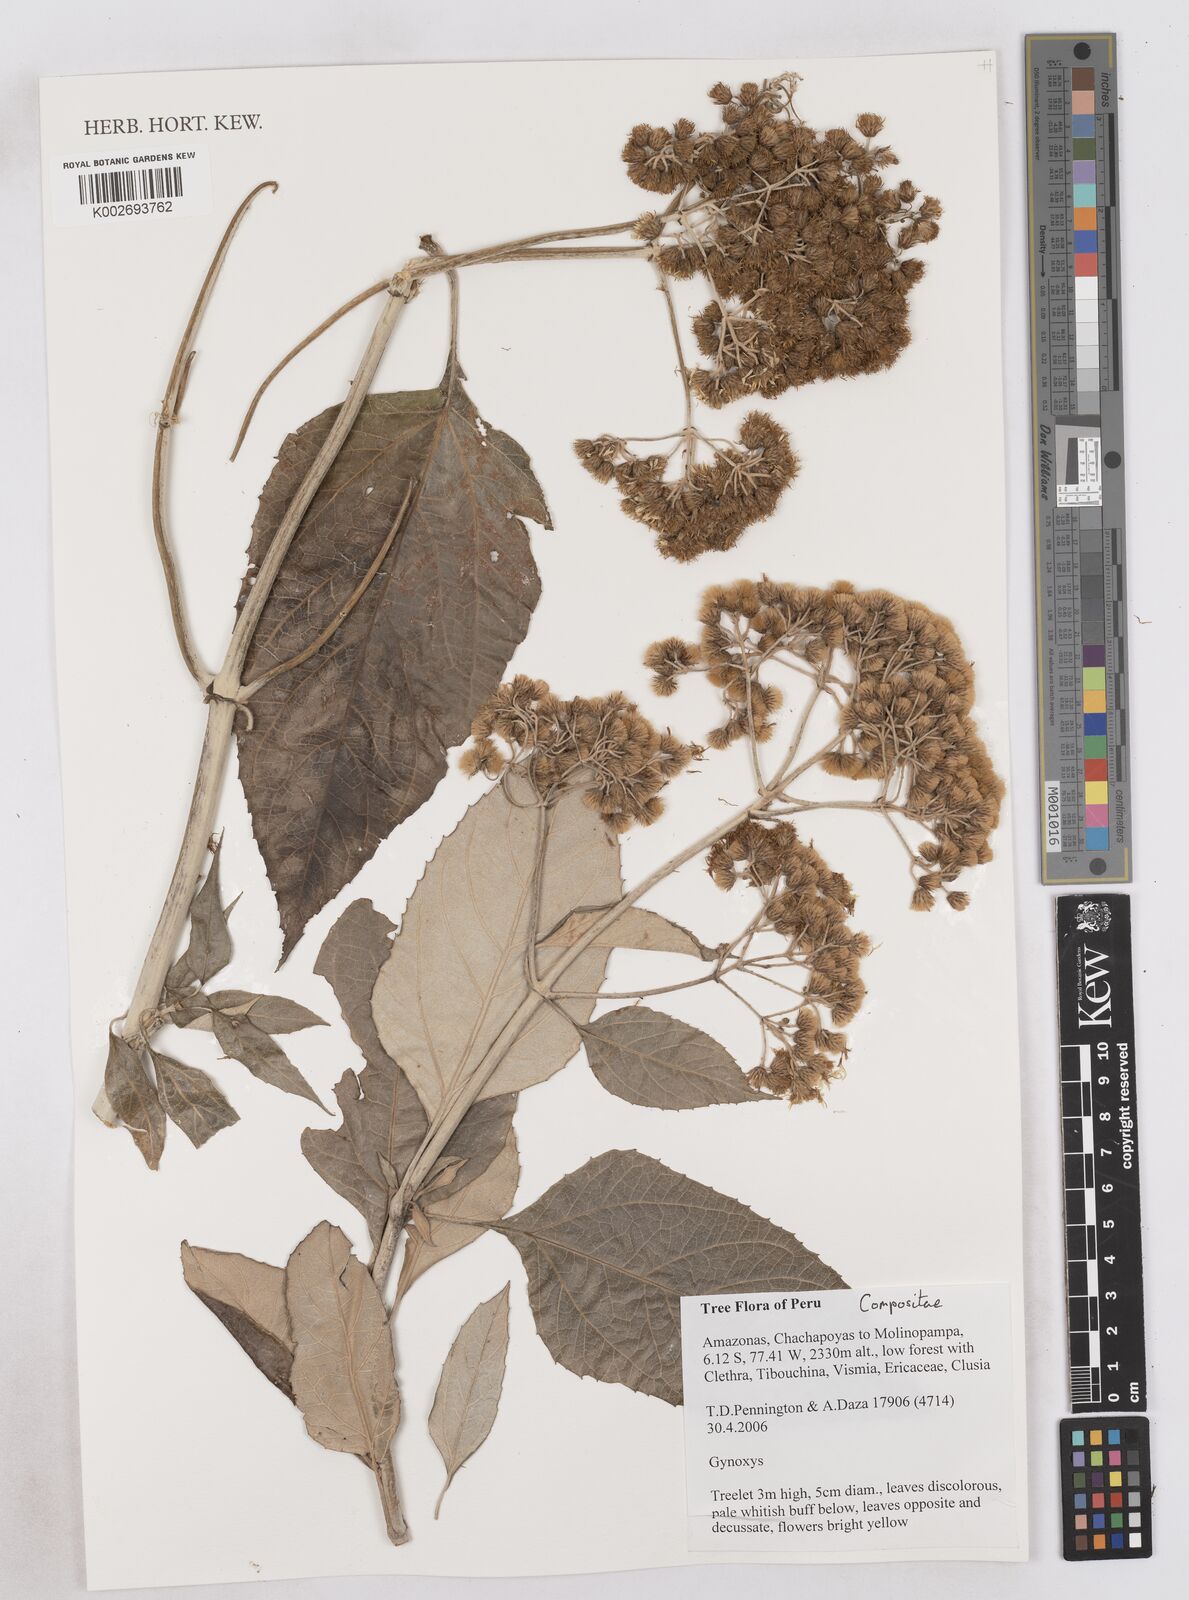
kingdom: Plantae
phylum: Tracheophyta
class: Magnoliopsida
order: Asterales
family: Asteraceae
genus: Platycarphella
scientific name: Platycarphella
